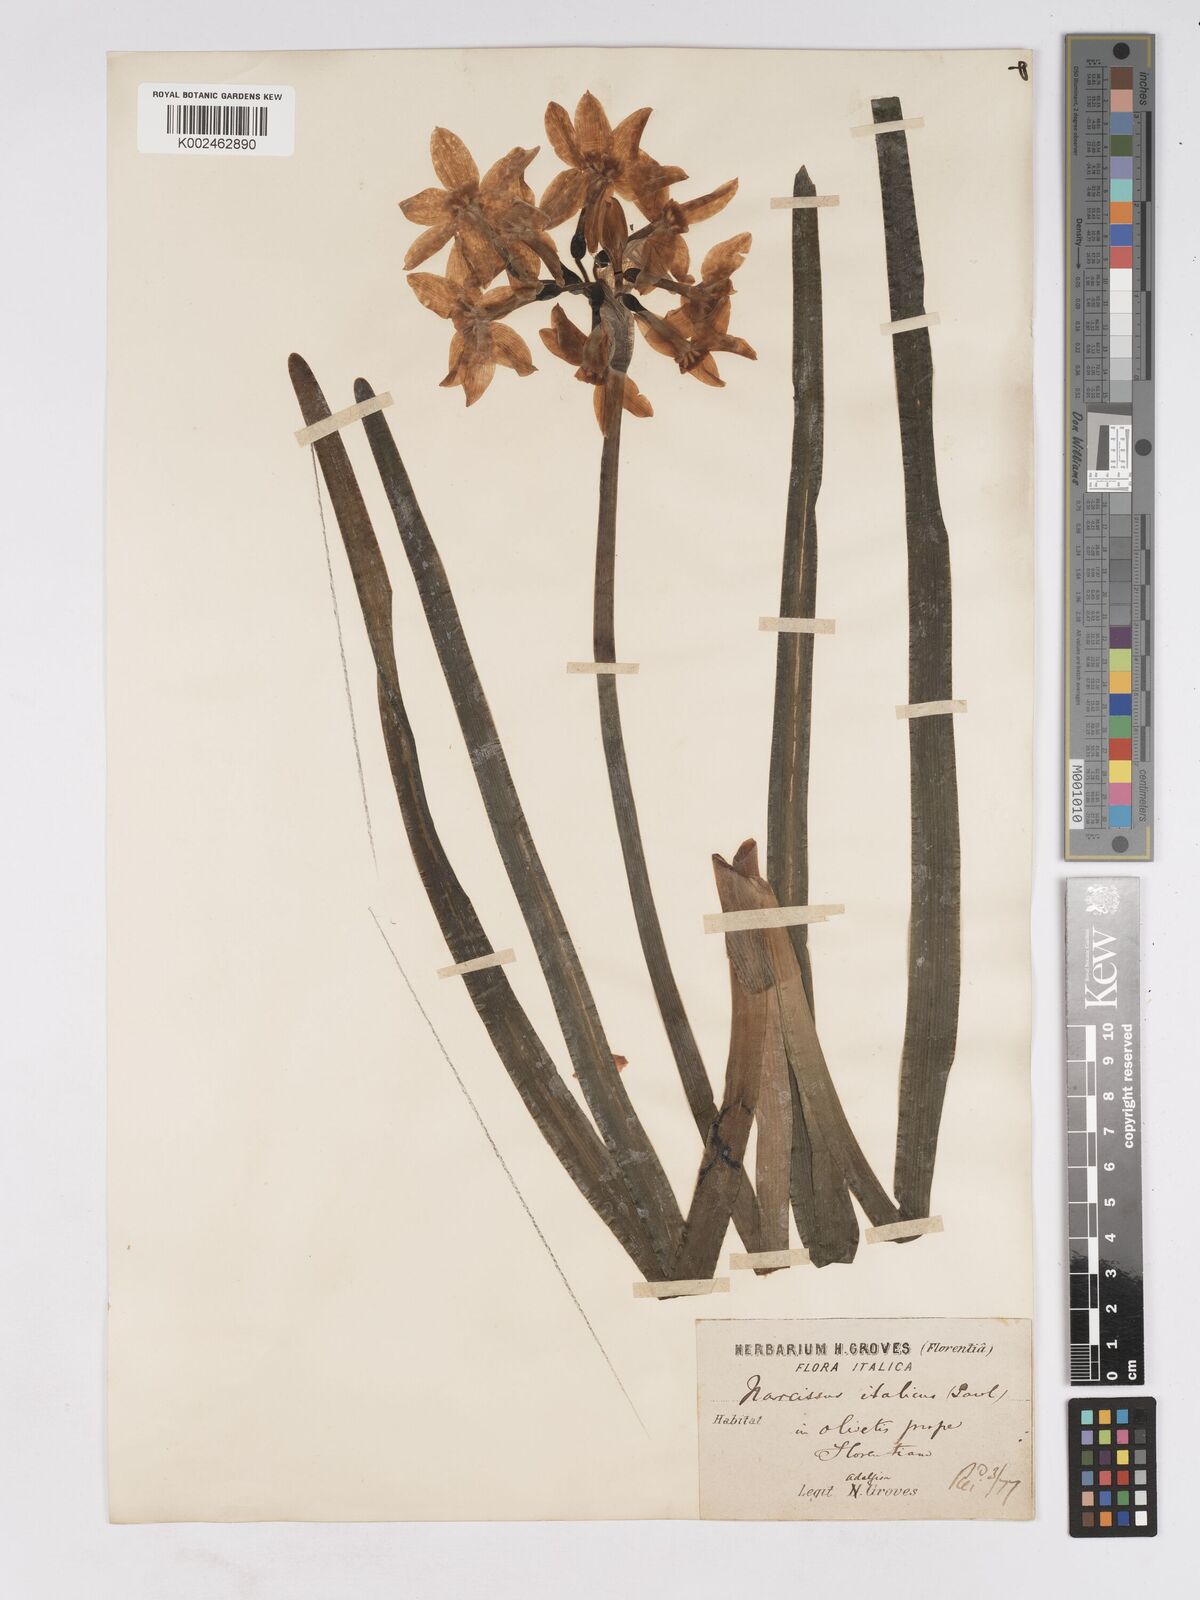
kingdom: Plantae
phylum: Tracheophyta
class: Liliopsida
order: Asparagales
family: Amaryllidaceae
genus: Narcissus
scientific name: Narcissus
